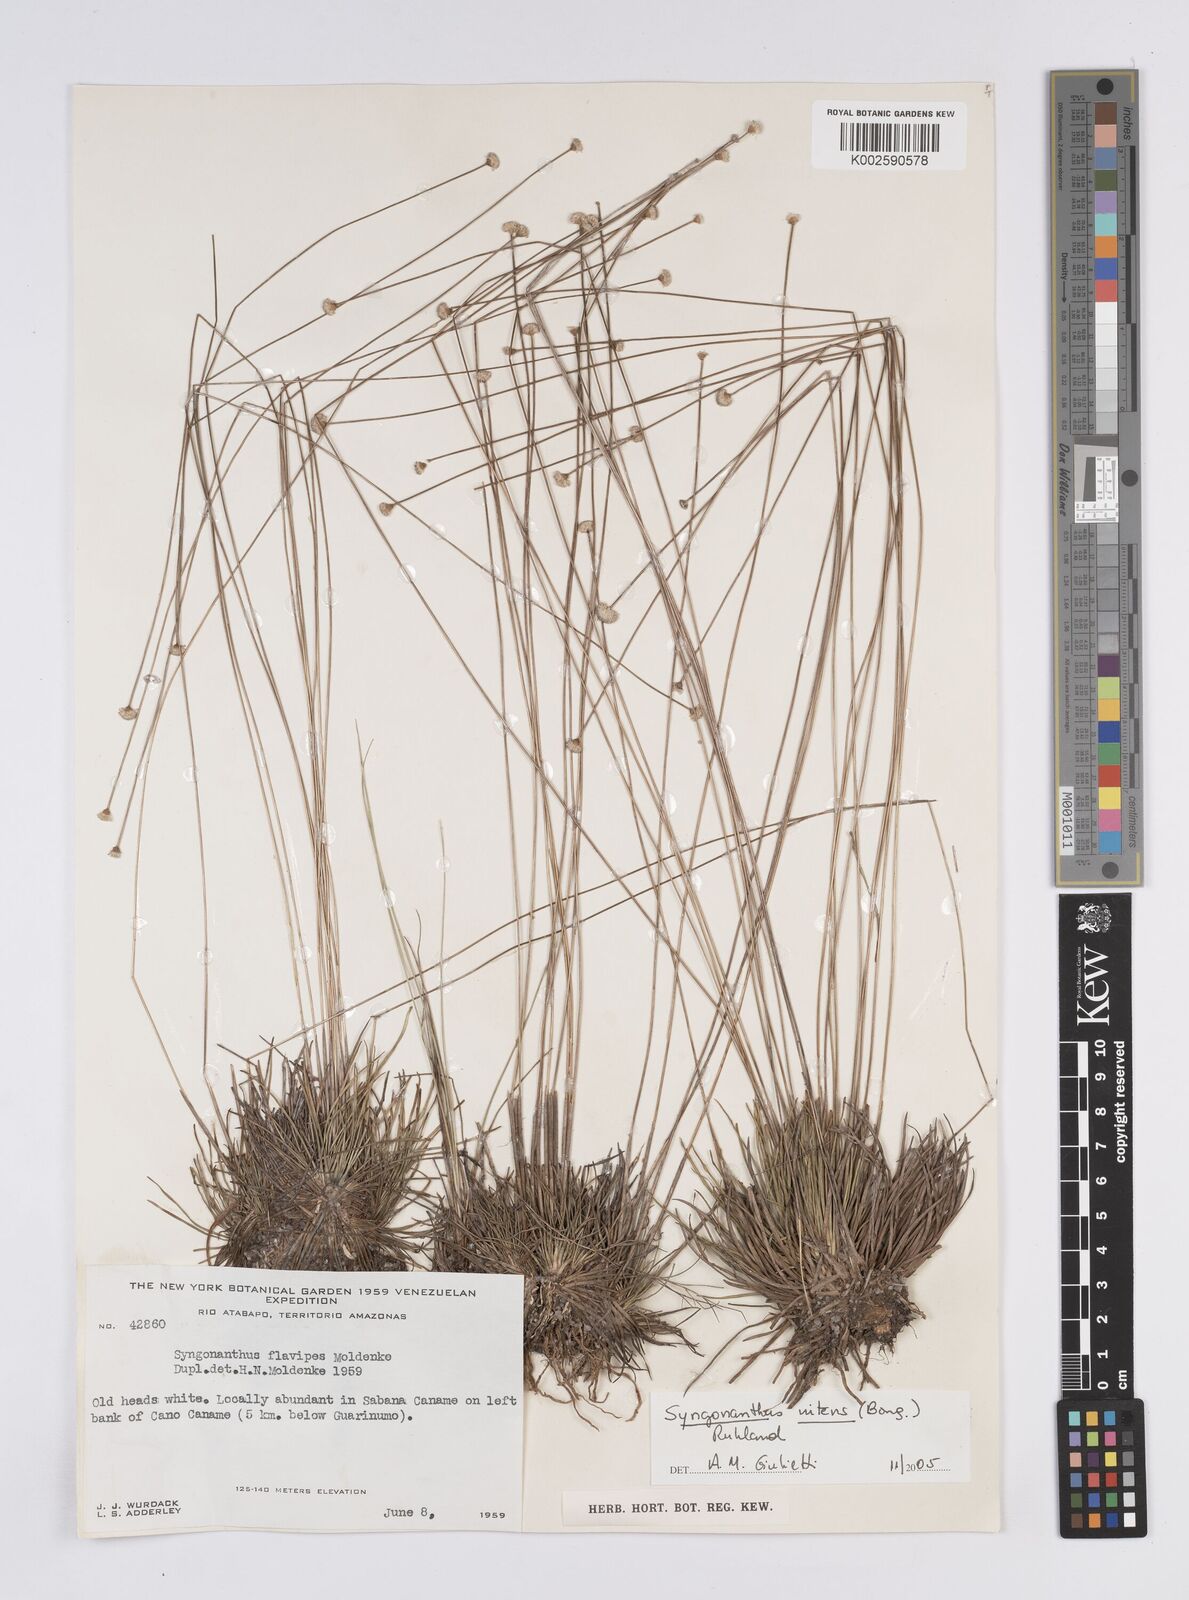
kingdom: Plantae
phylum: Tracheophyta
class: Liliopsida
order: Poales
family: Eriocaulaceae
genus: Syngonanthus
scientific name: Syngonanthus nitens
